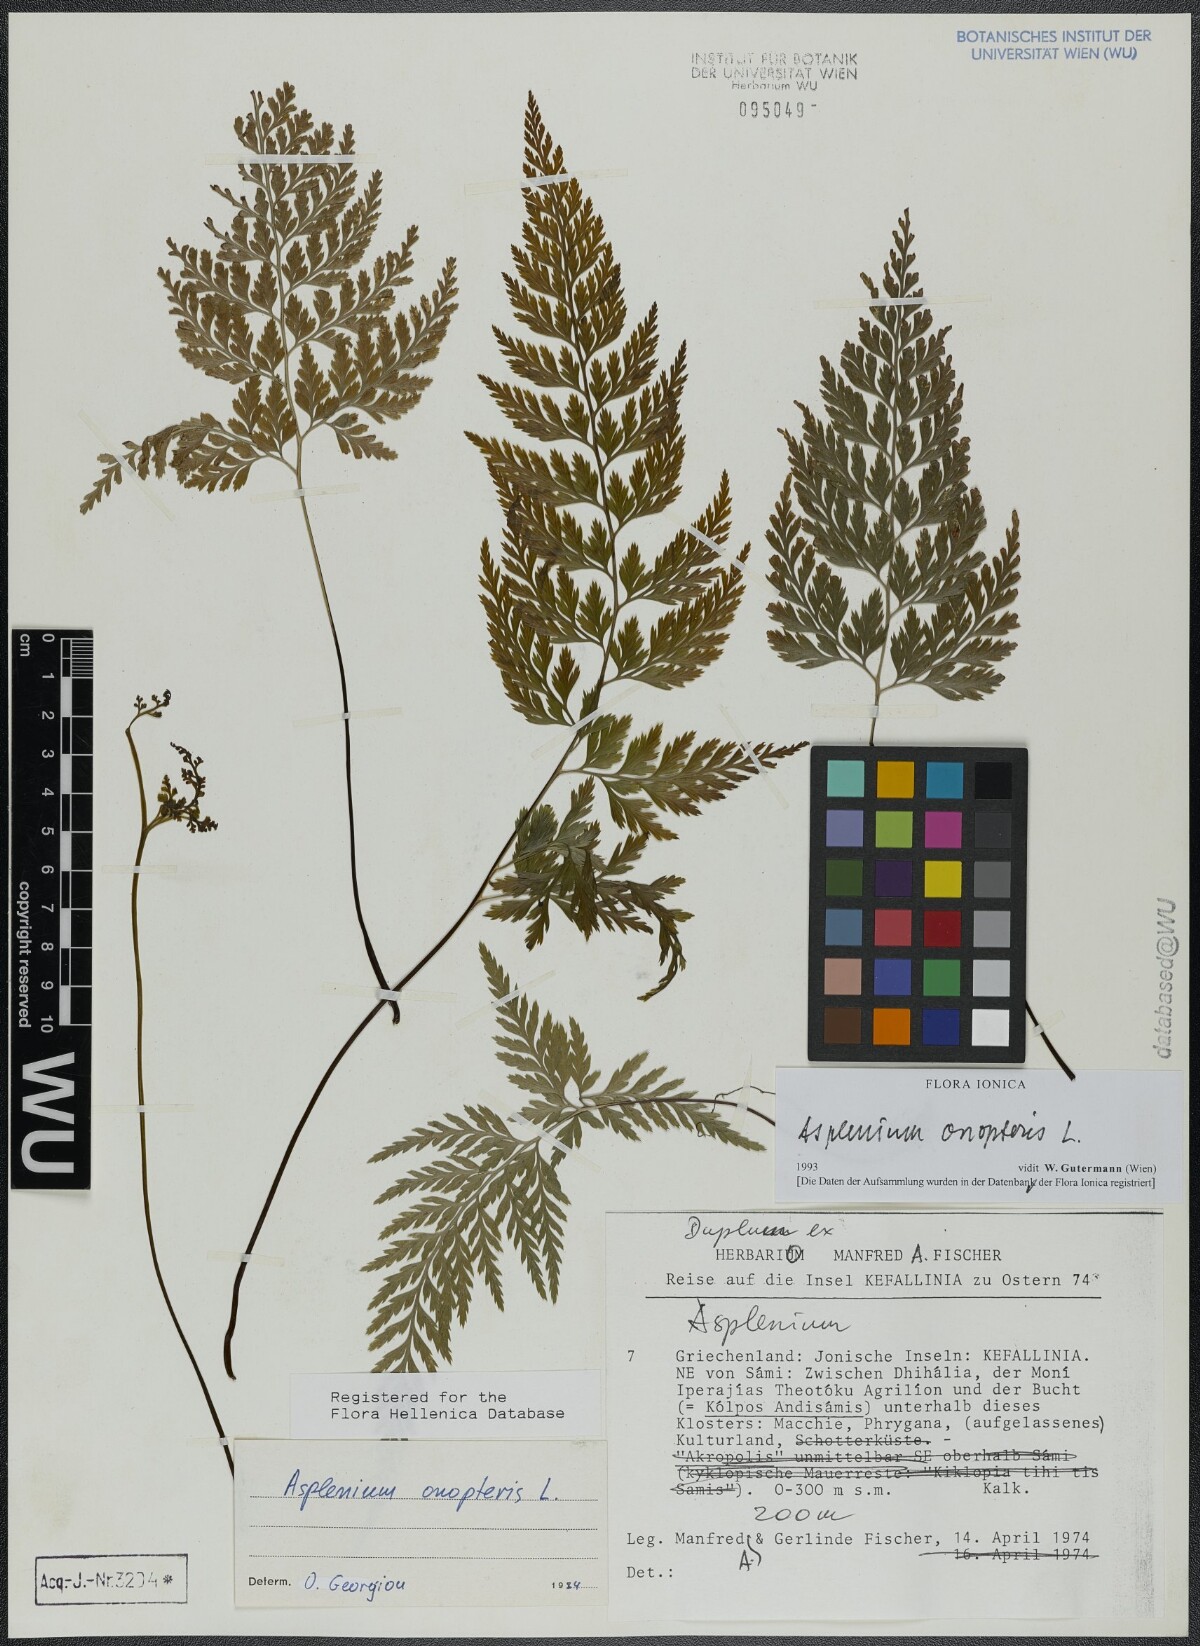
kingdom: Plantae
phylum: Tracheophyta
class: Polypodiopsida
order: Polypodiales
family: Aspleniaceae
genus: Asplenium
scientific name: Asplenium onopteris
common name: Irish spleenwort
